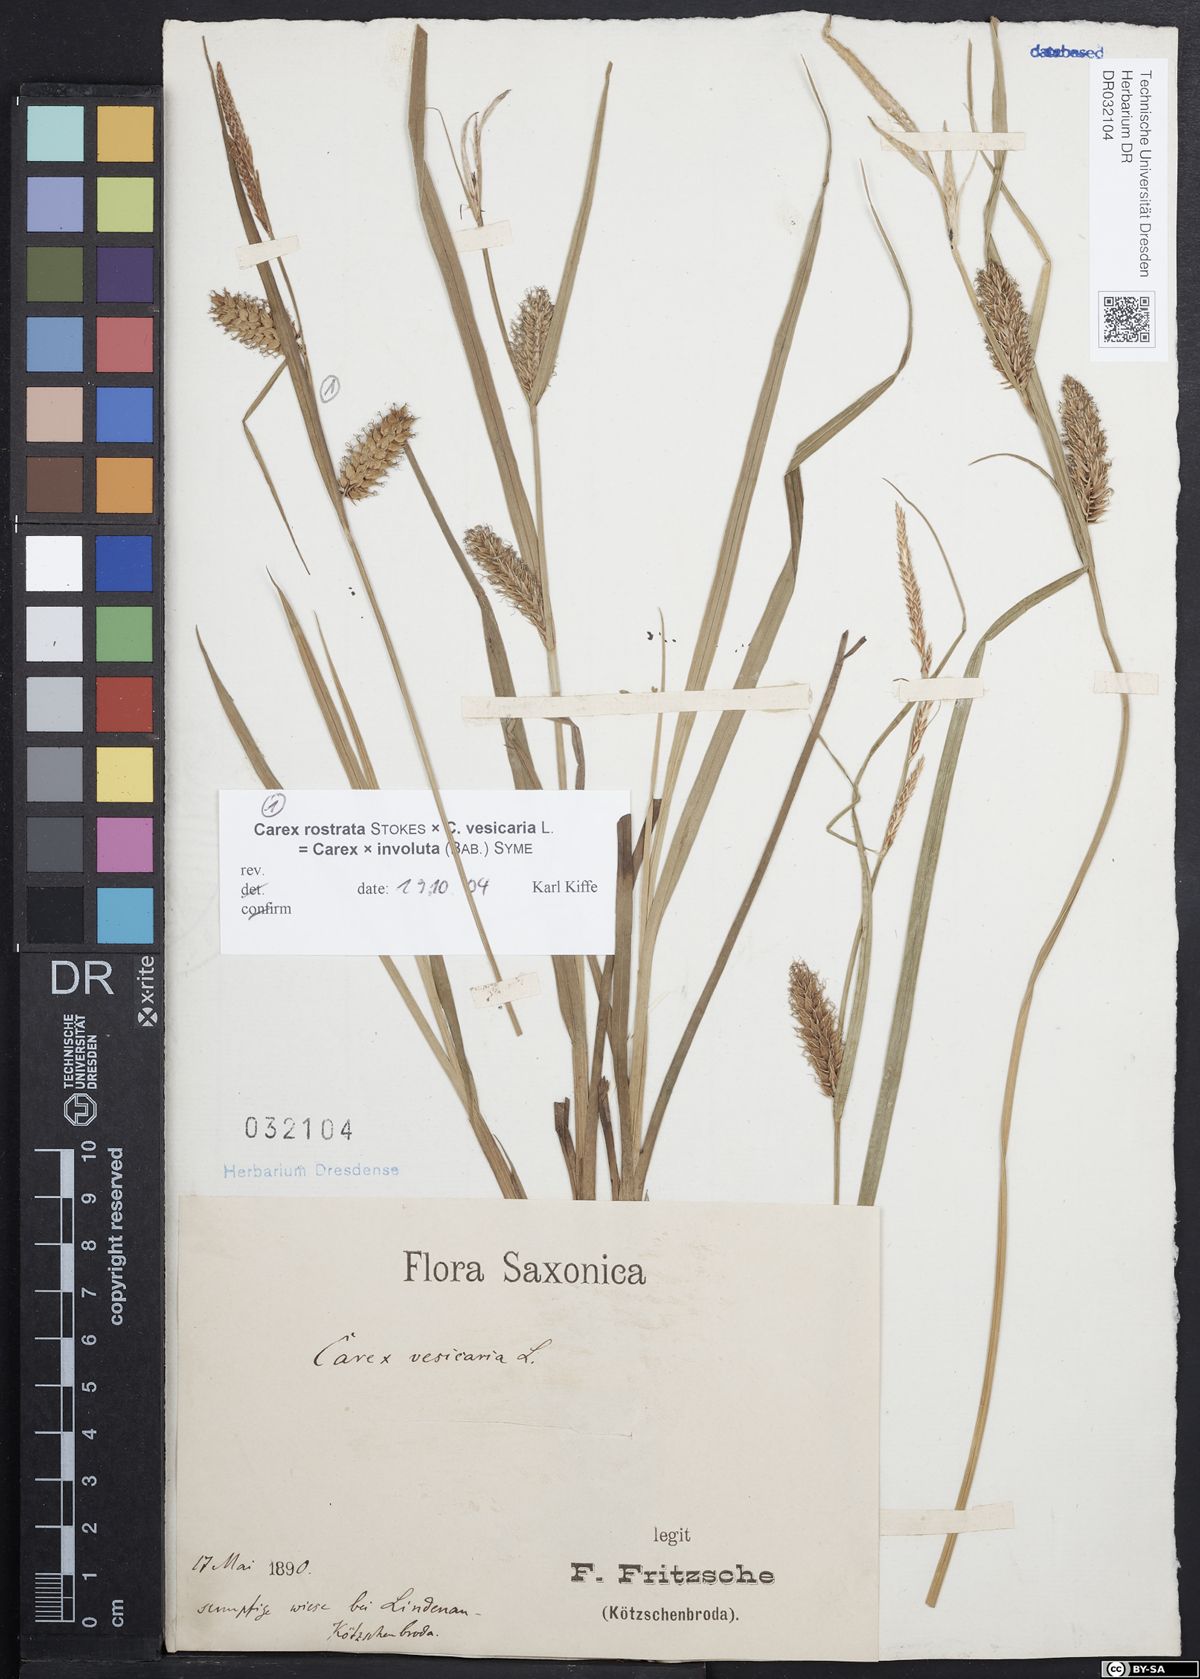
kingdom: Plantae
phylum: Tracheophyta
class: Liliopsida
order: Poales
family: Cyperaceae
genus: Carex
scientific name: Carex vesicaria
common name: Bladder-sedge
